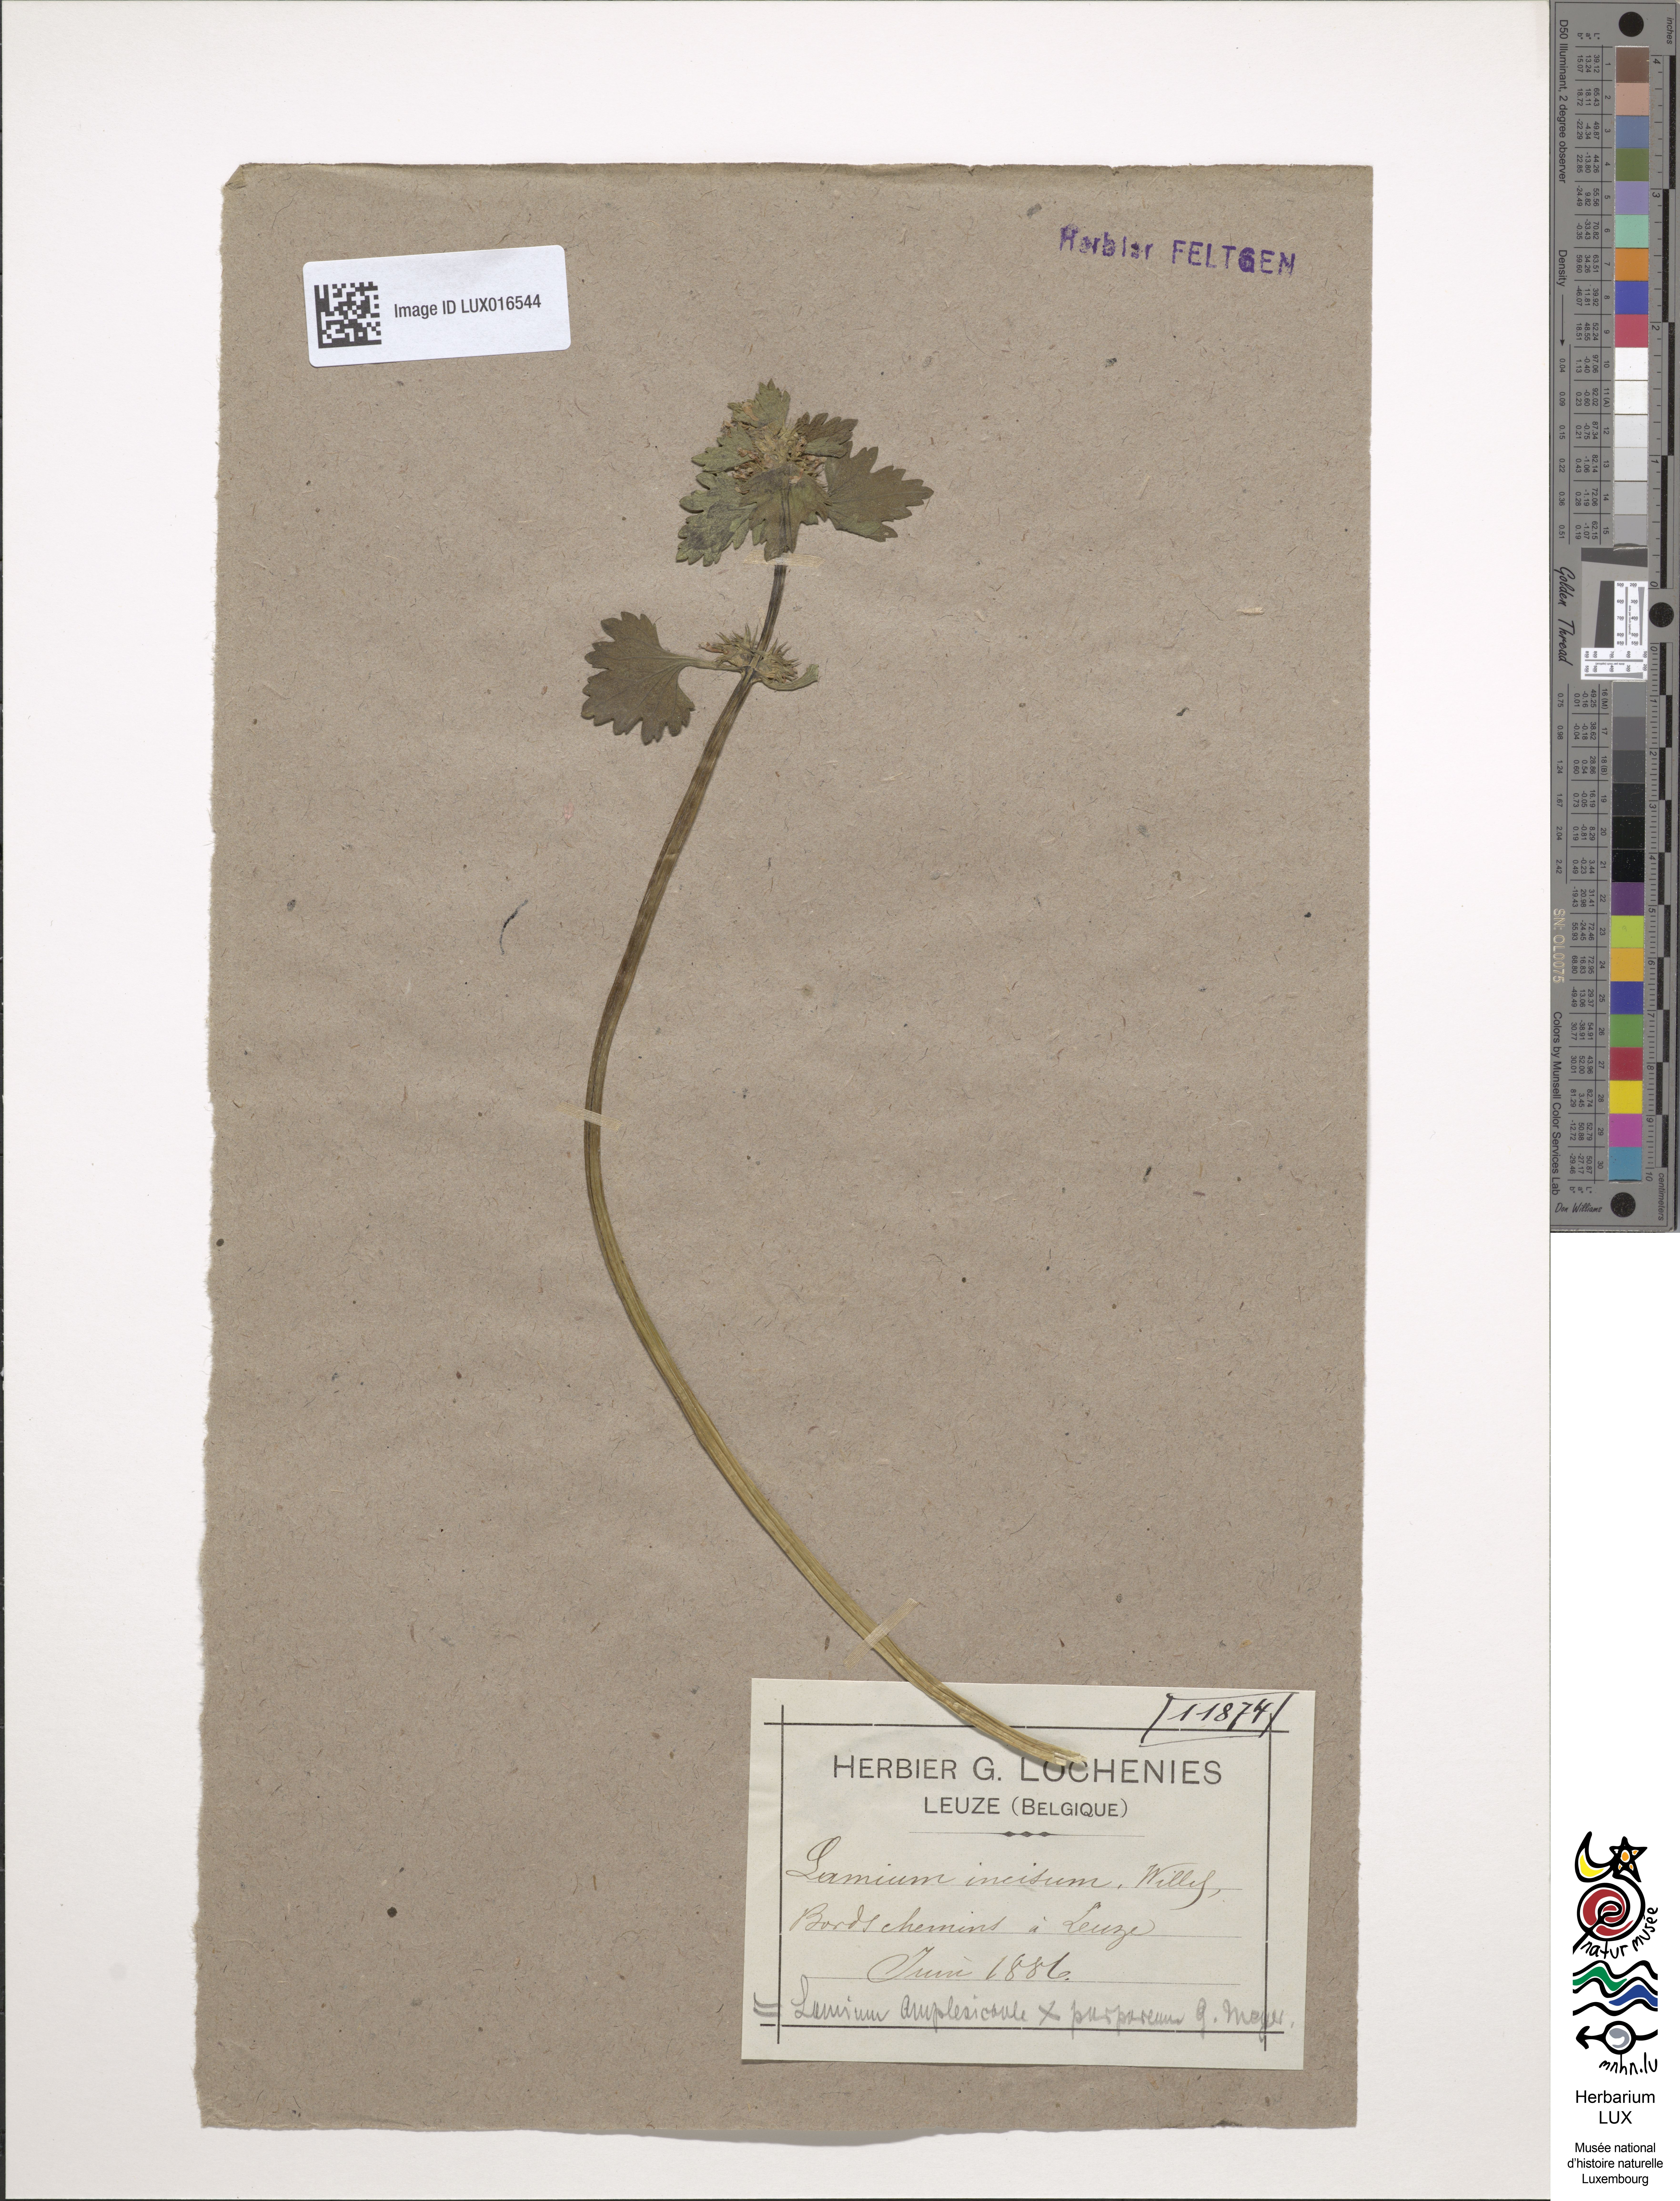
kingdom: Plantae
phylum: Tracheophyta
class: Magnoliopsida
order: Lamiales
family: Lamiaceae
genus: Lamium
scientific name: Lamium hybridum
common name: Cut-leaved dead-nettle
